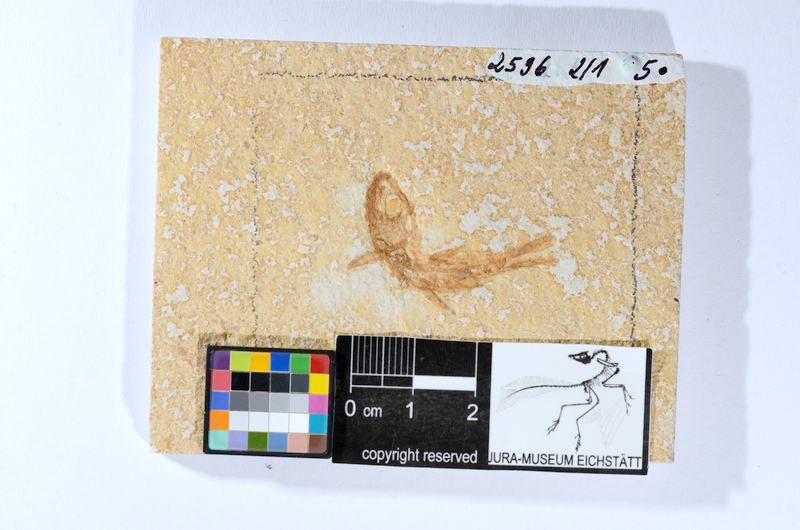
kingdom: Animalia
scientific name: Animalia
